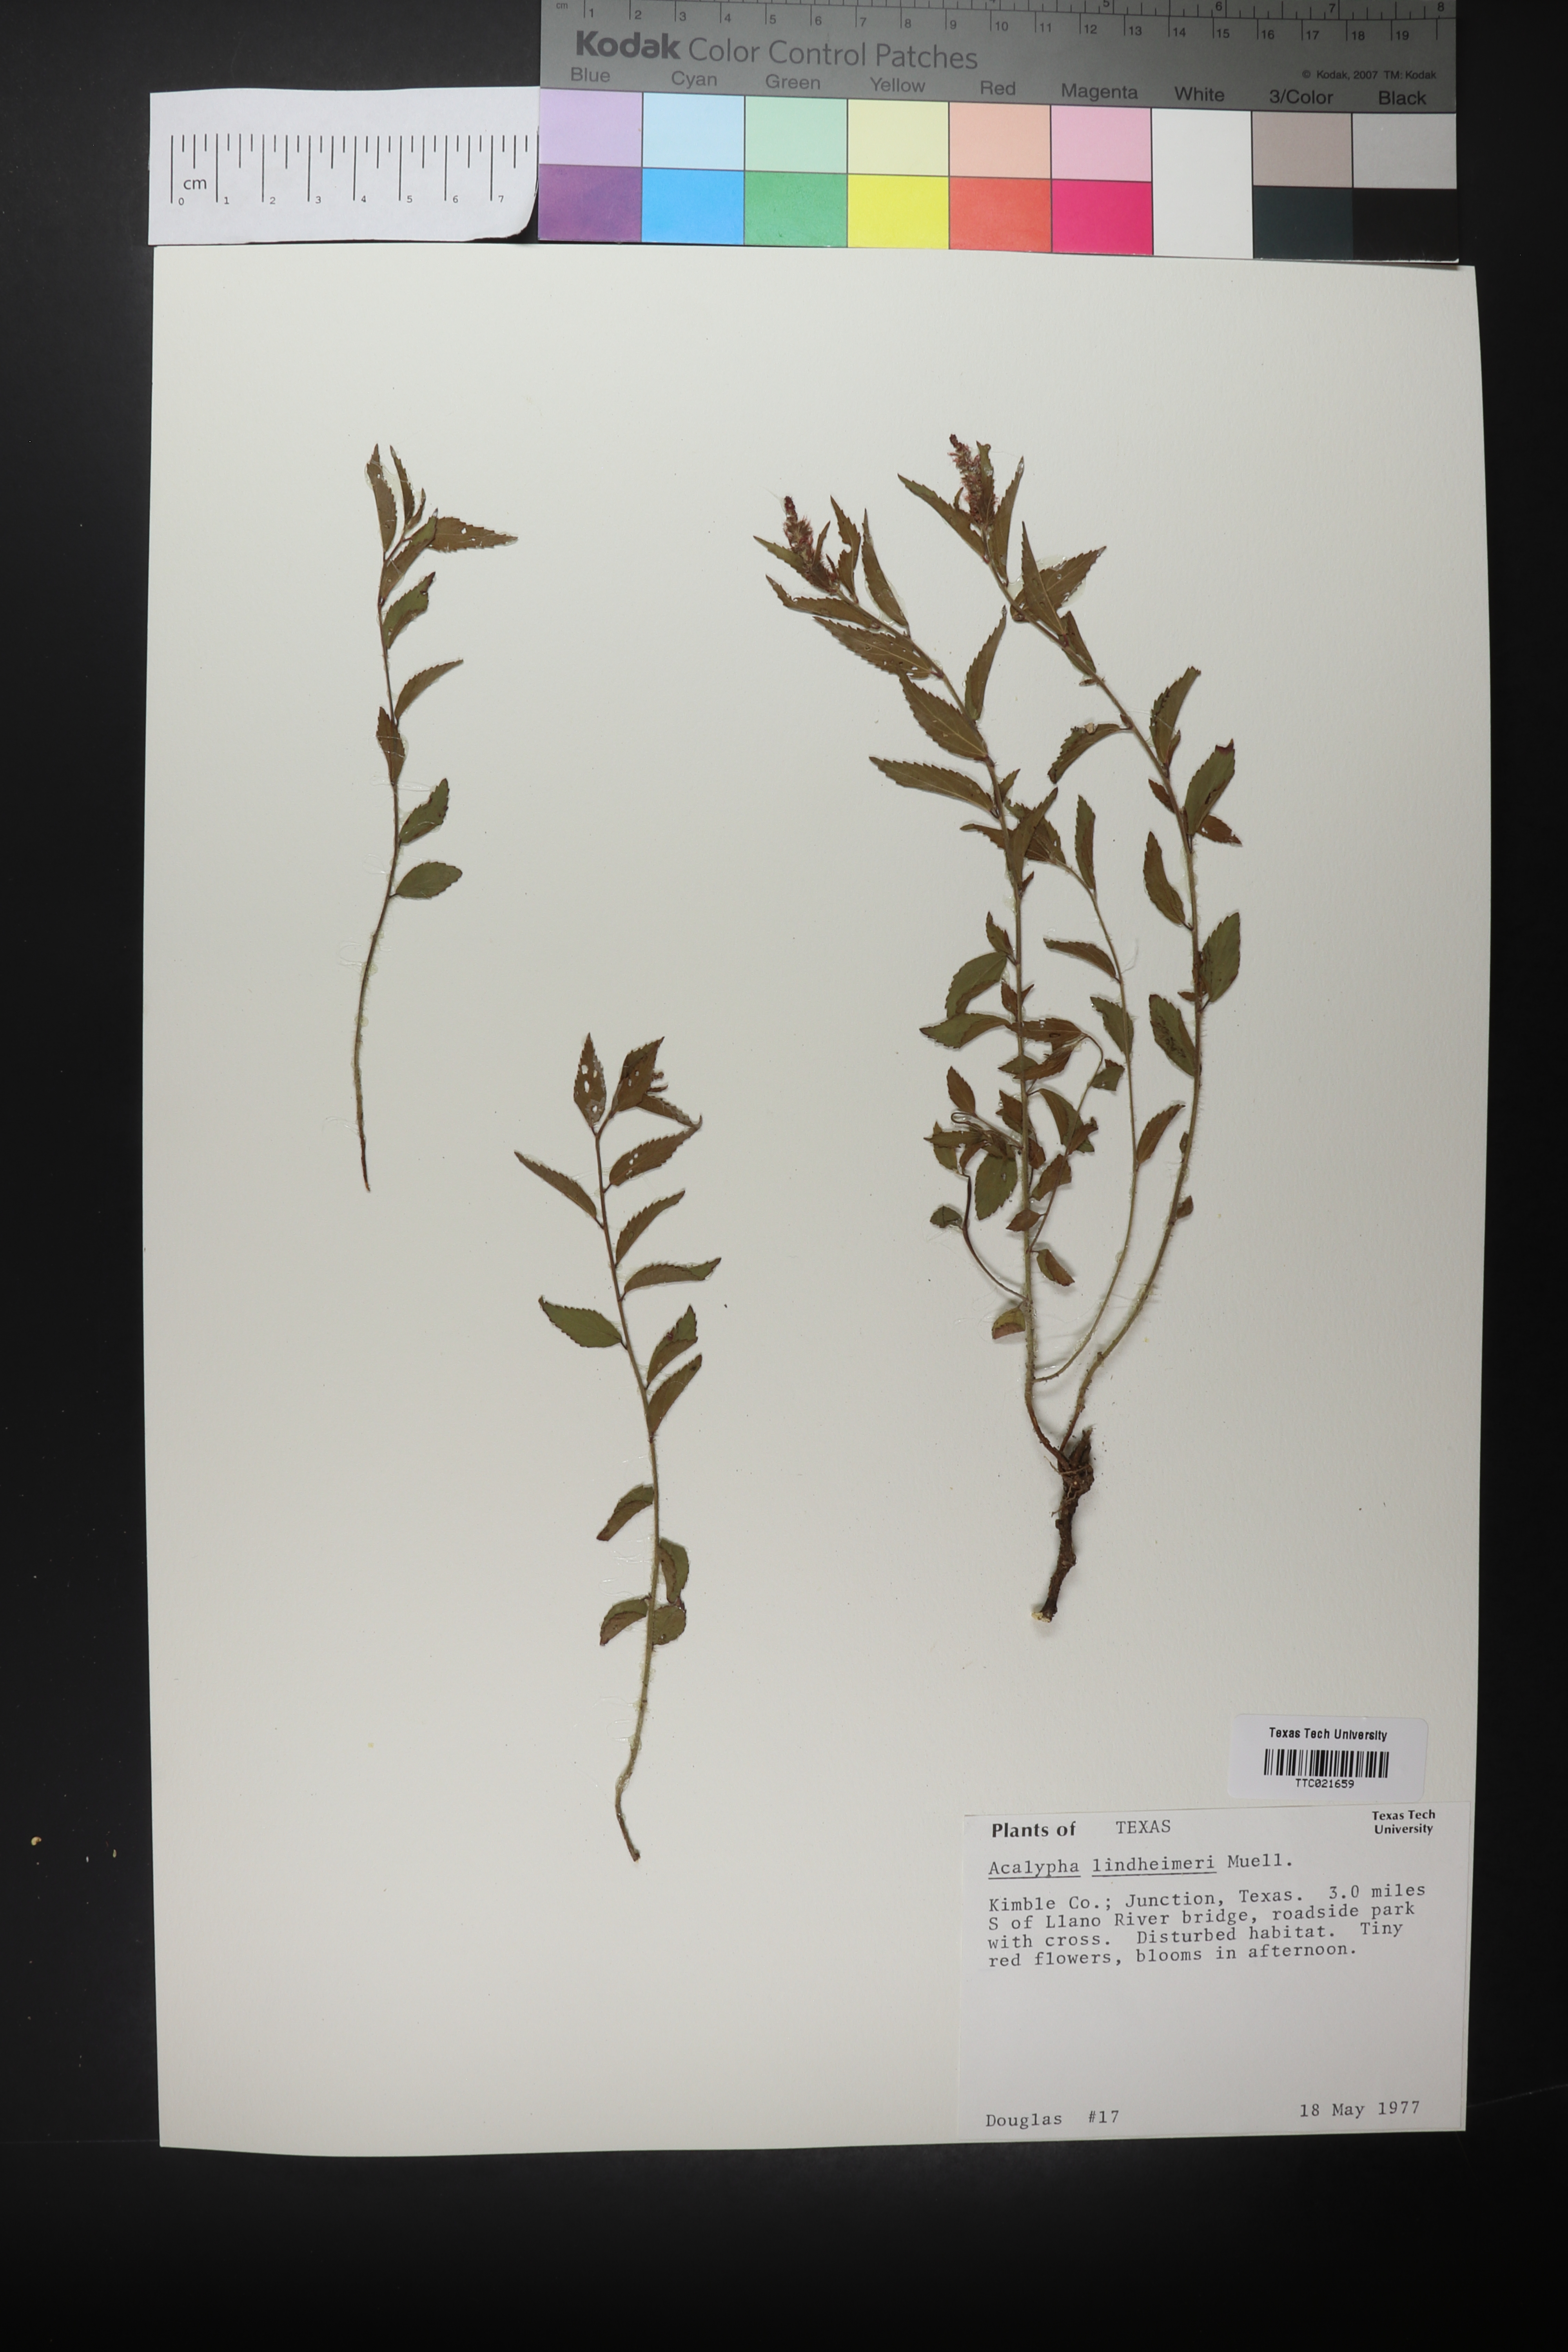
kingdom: Plantae
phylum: Tracheophyta
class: Magnoliopsida
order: Malpighiales
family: Euphorbiaceae
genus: Acalypha
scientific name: Acalypha phleoides
